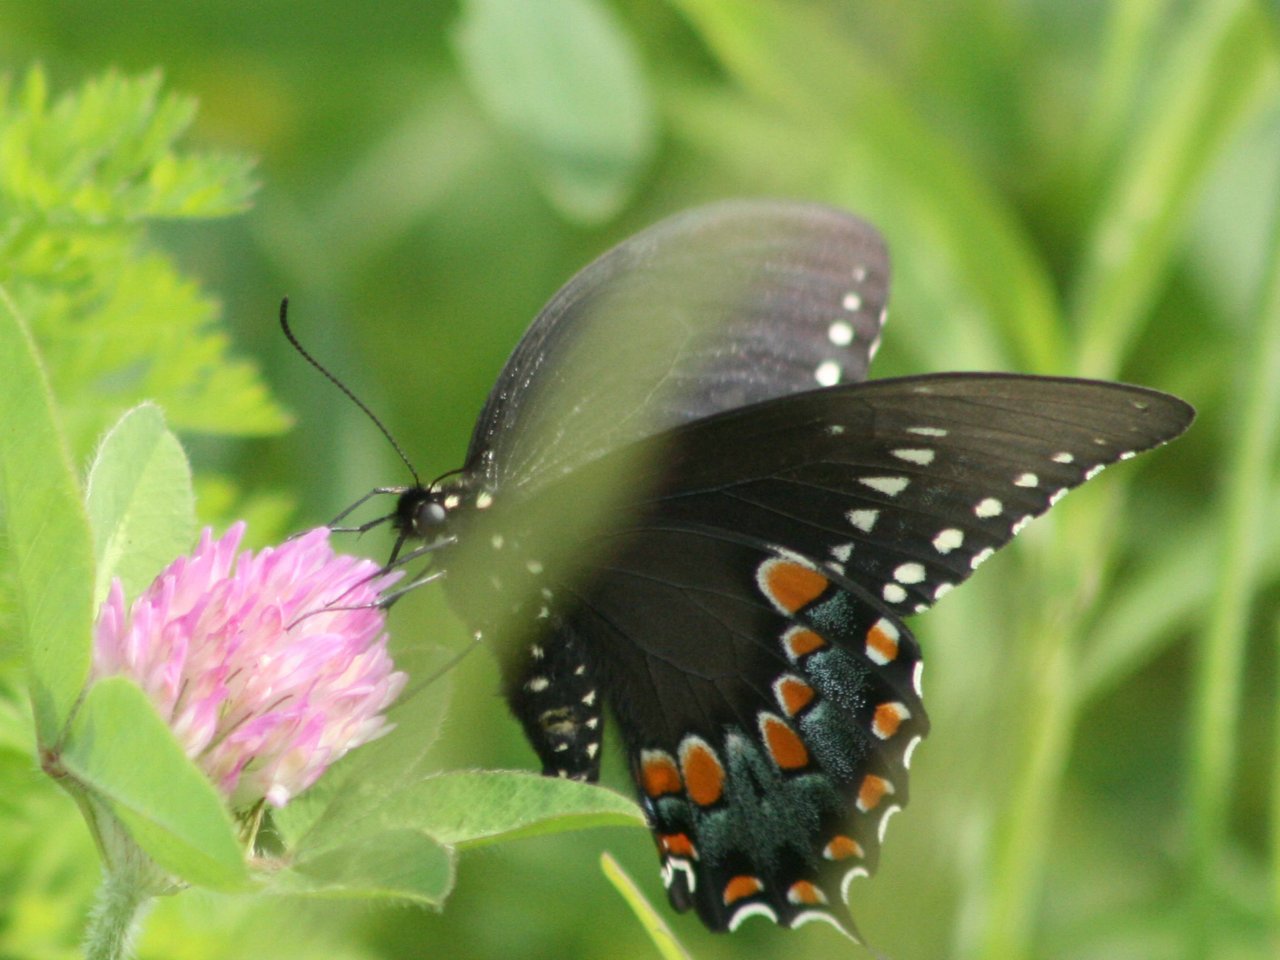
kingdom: Animalia
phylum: Arthropoda
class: Insecta
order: Lepidoptera
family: Papilionidae
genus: Pterourus
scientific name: Pterourus troilus
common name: Spicebush Swallowtail
